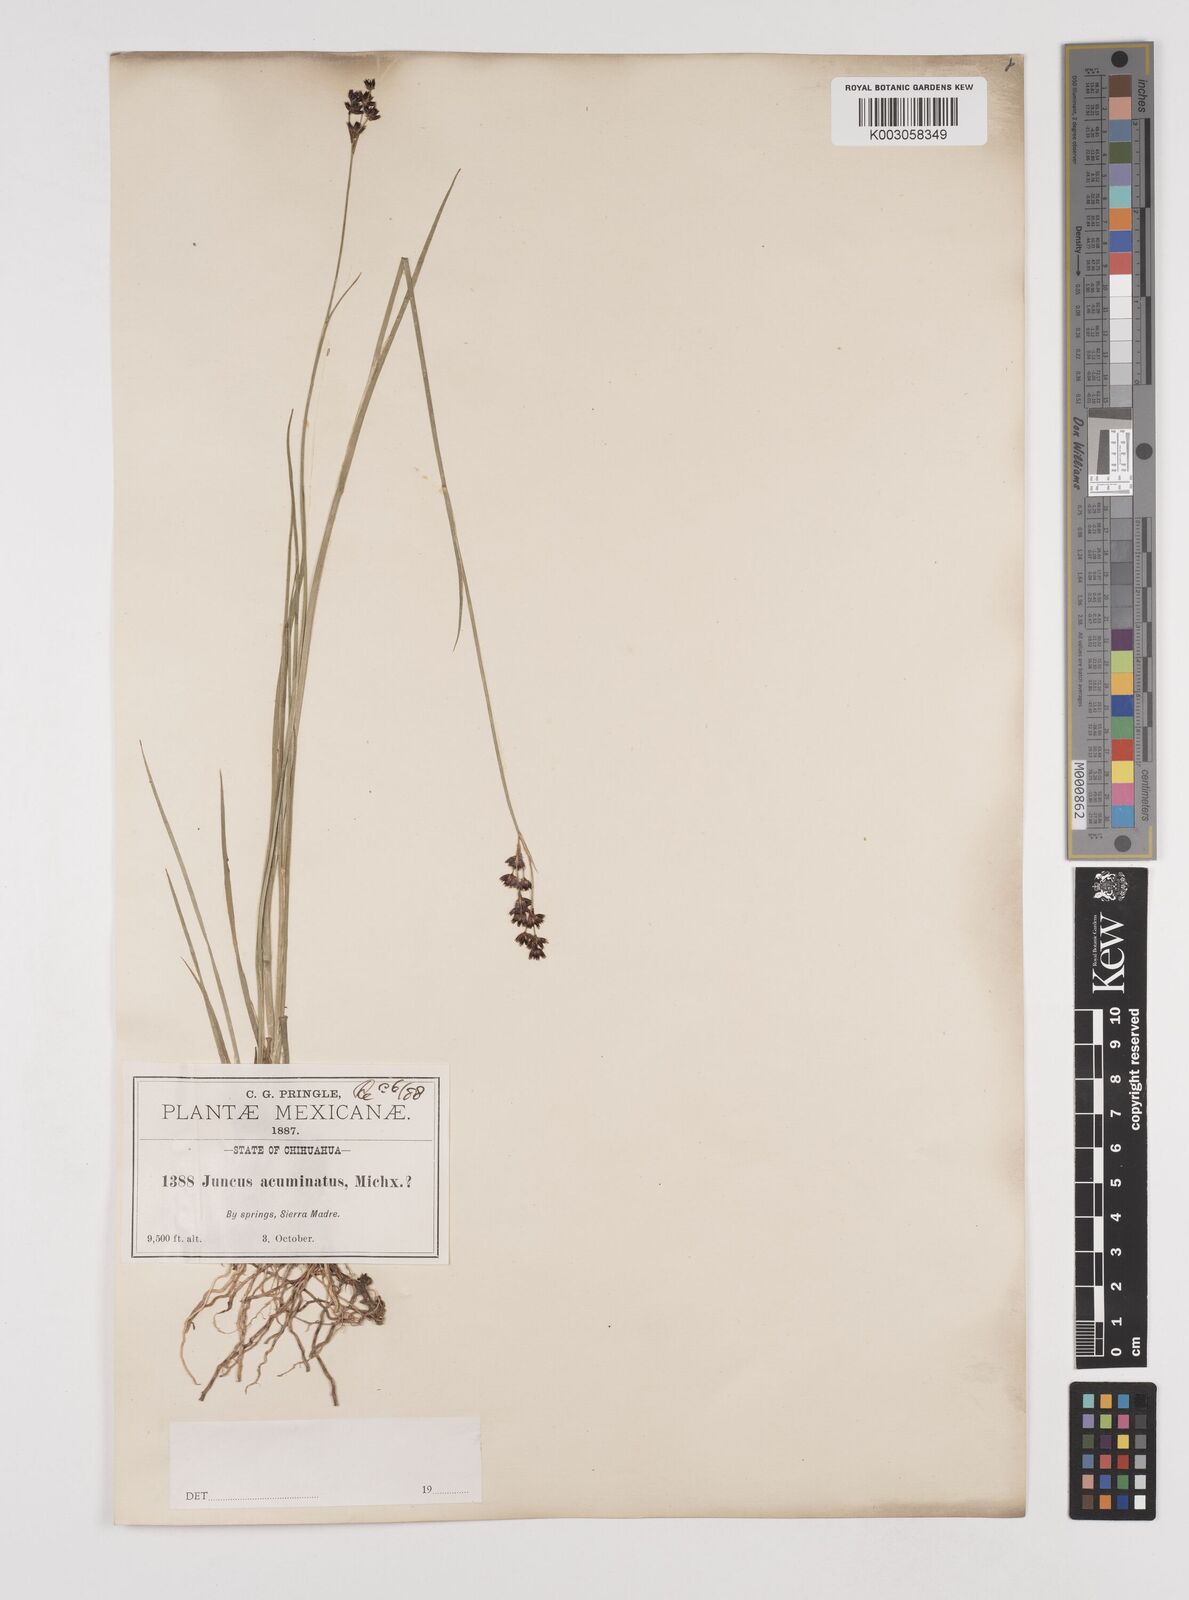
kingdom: Plantae
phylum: Tracheophyta
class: Liliopsida
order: Poales
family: Juncaceae
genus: Juncus
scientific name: Juncus acuminatus
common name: Knotty-leaved rush
